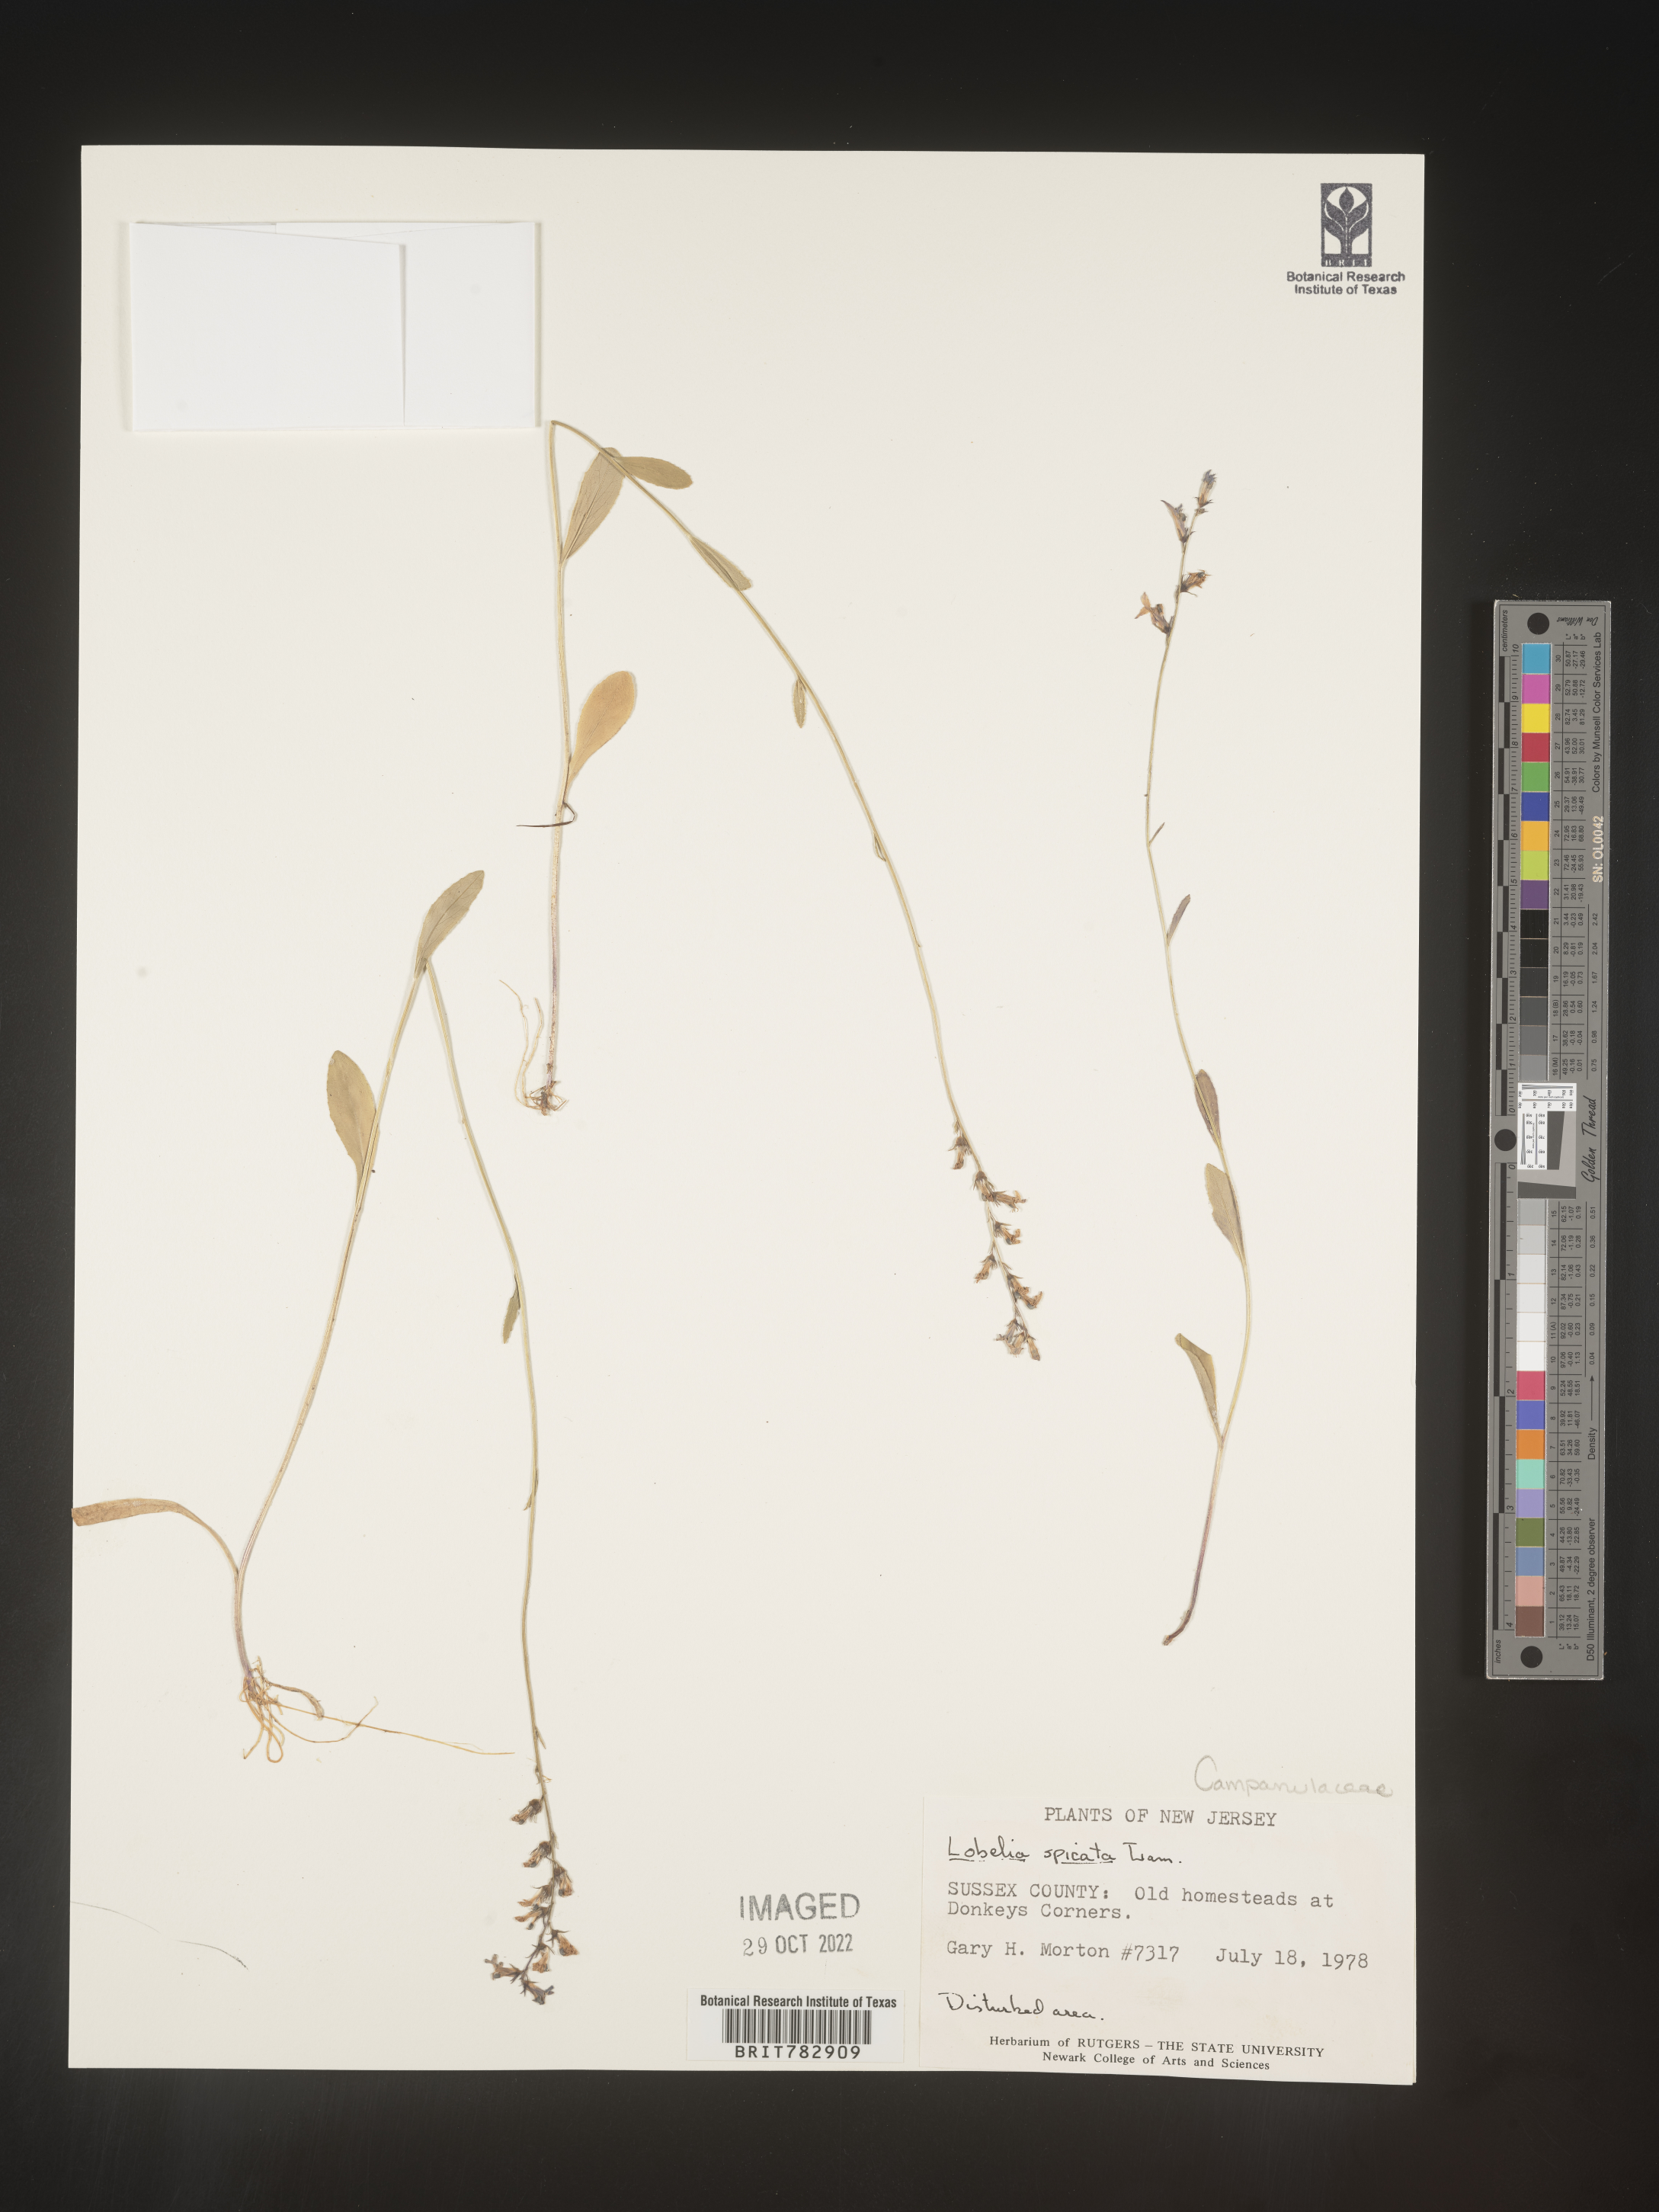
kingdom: Plantae
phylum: Tracheophyta
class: Magnoliopsida
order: Asterales
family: Campanulaceae
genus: Lobelia
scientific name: Lobelia spicata
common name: Pale-spike lobelia
